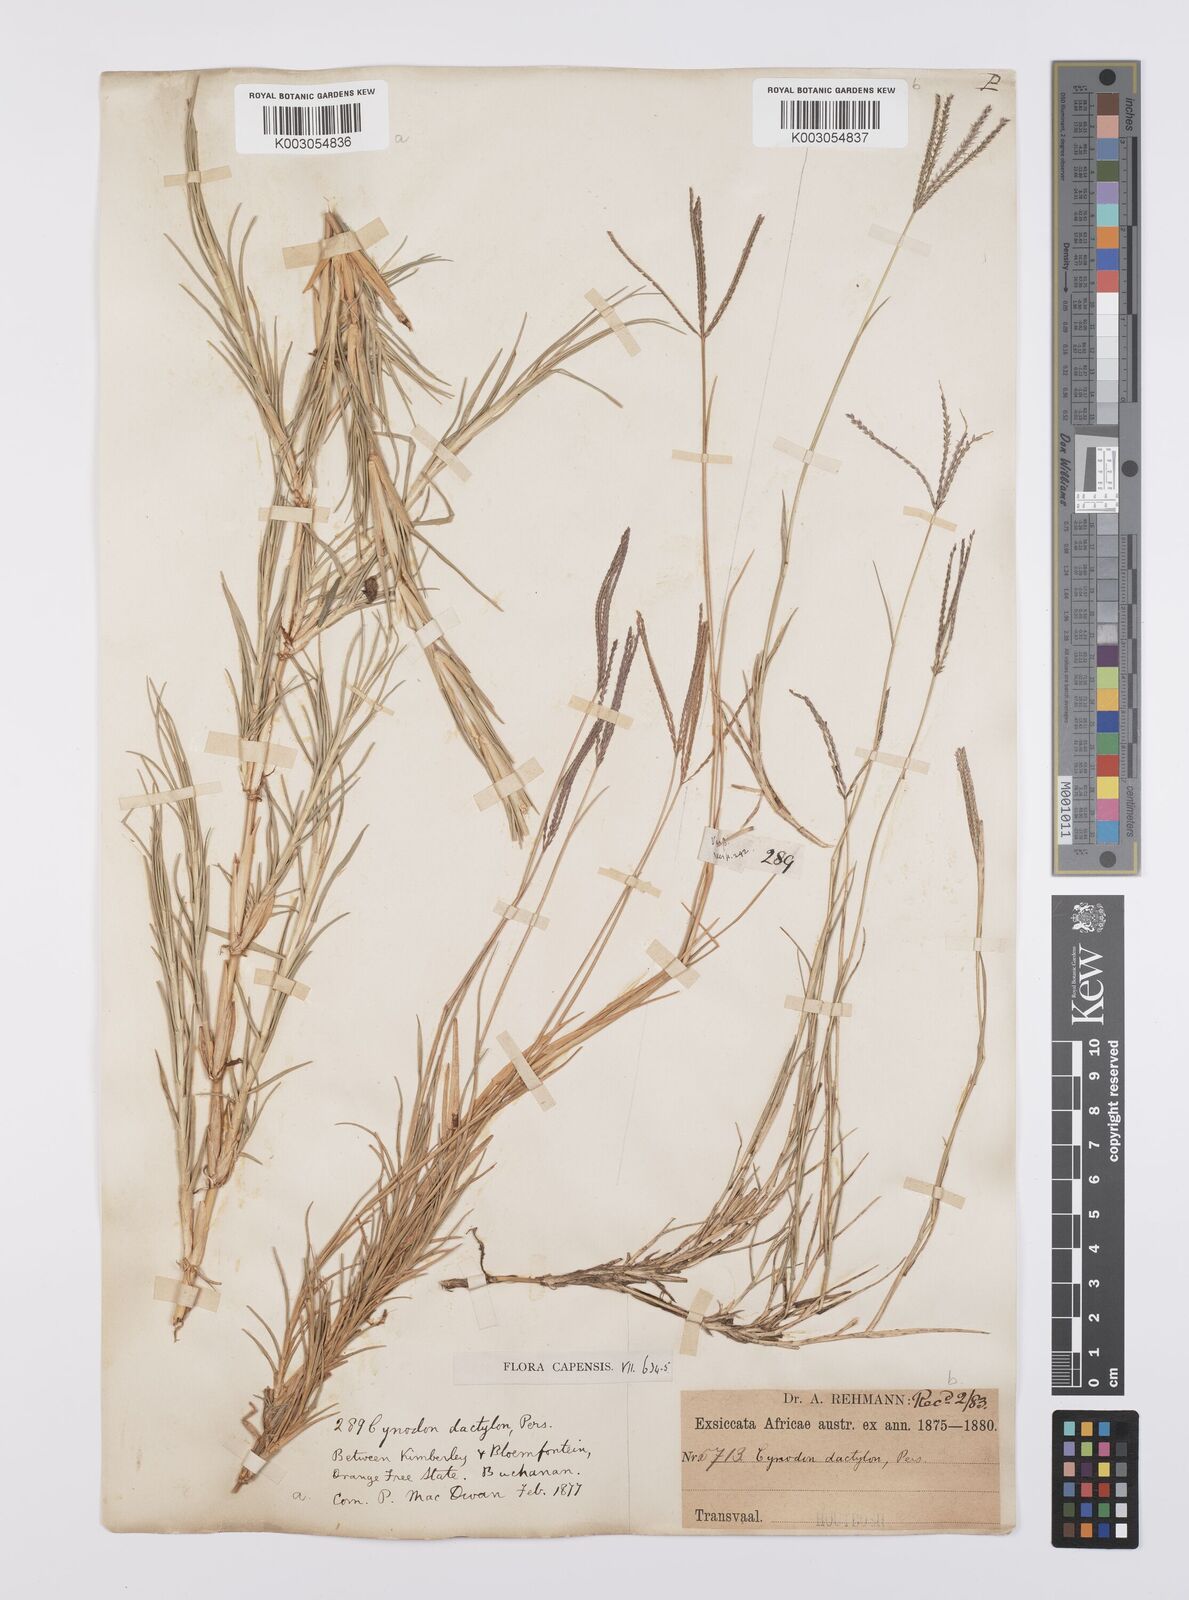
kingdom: Plantae
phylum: Tracheophyta
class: Liliopsida
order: Poales
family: Poaceae
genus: Cynodon
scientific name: Cynodon dactylon
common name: Bermuda grass
